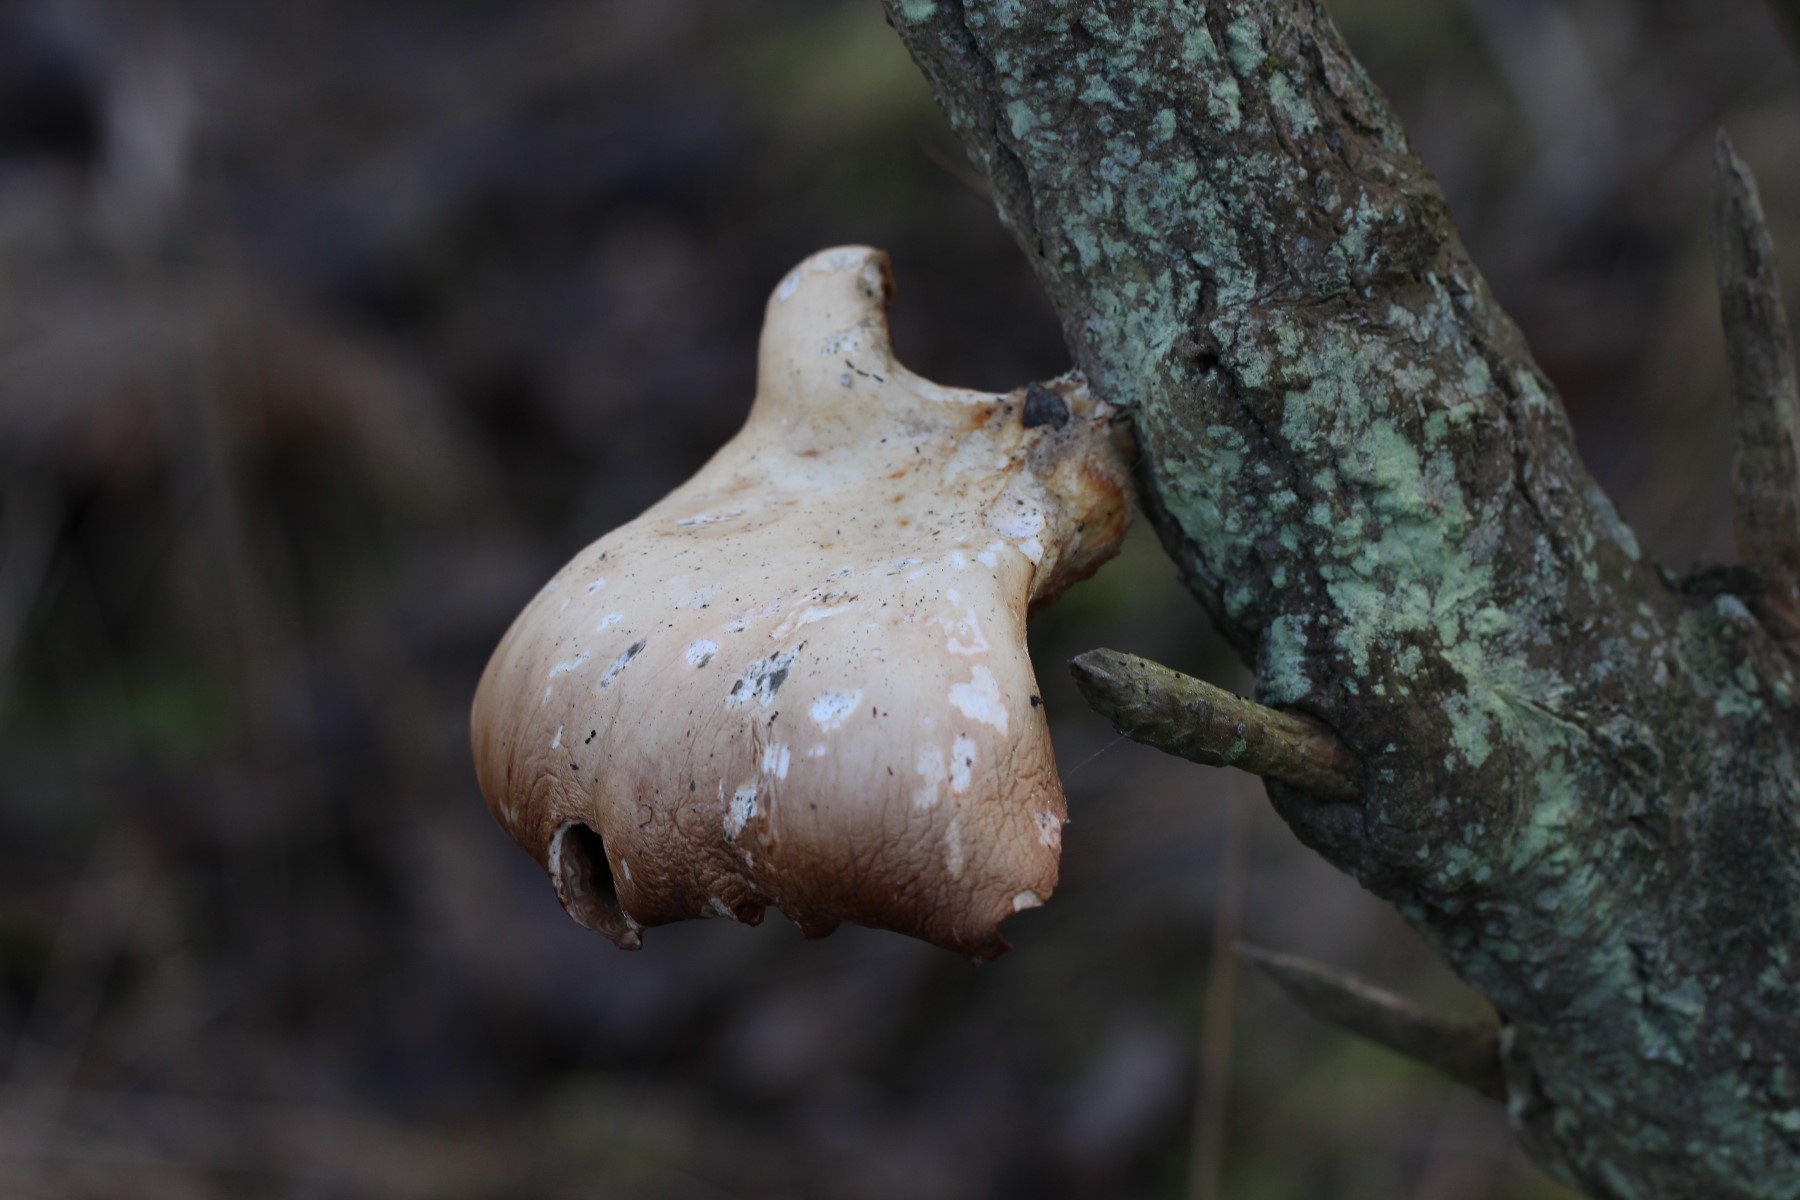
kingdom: Fungi
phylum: Basidiomycota
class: Agaricomycetes
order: Agaricales
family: Pleurotaceae
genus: Pleurotus
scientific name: Pleurotus ostreatus
